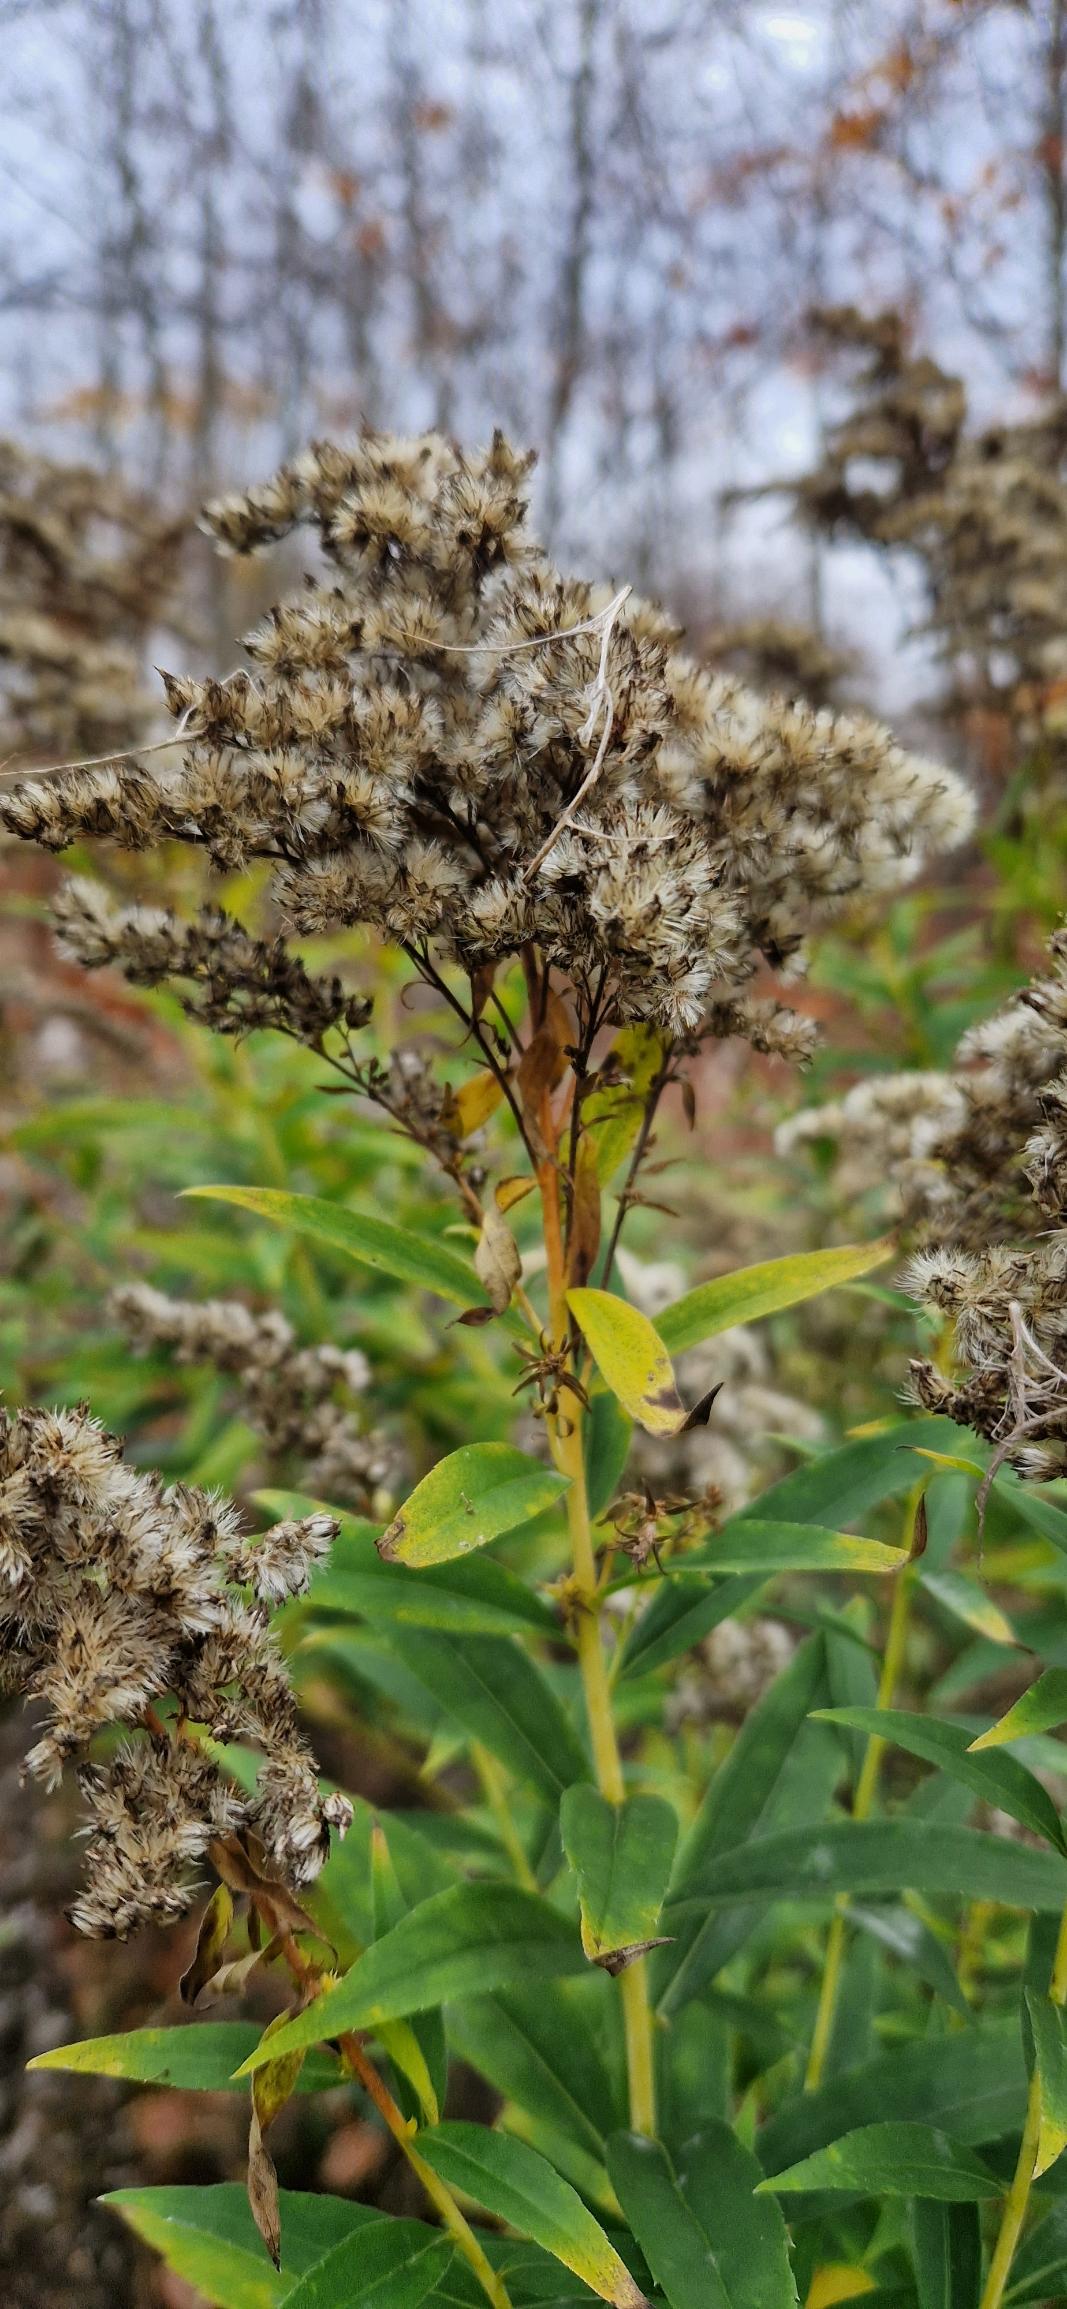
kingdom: Plantae
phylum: Tracheophyta
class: Magnoliopsida
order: Asterales
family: Asteraceae
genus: Solidago
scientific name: Solidago canadensis
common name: Kanadisk gyldenris
